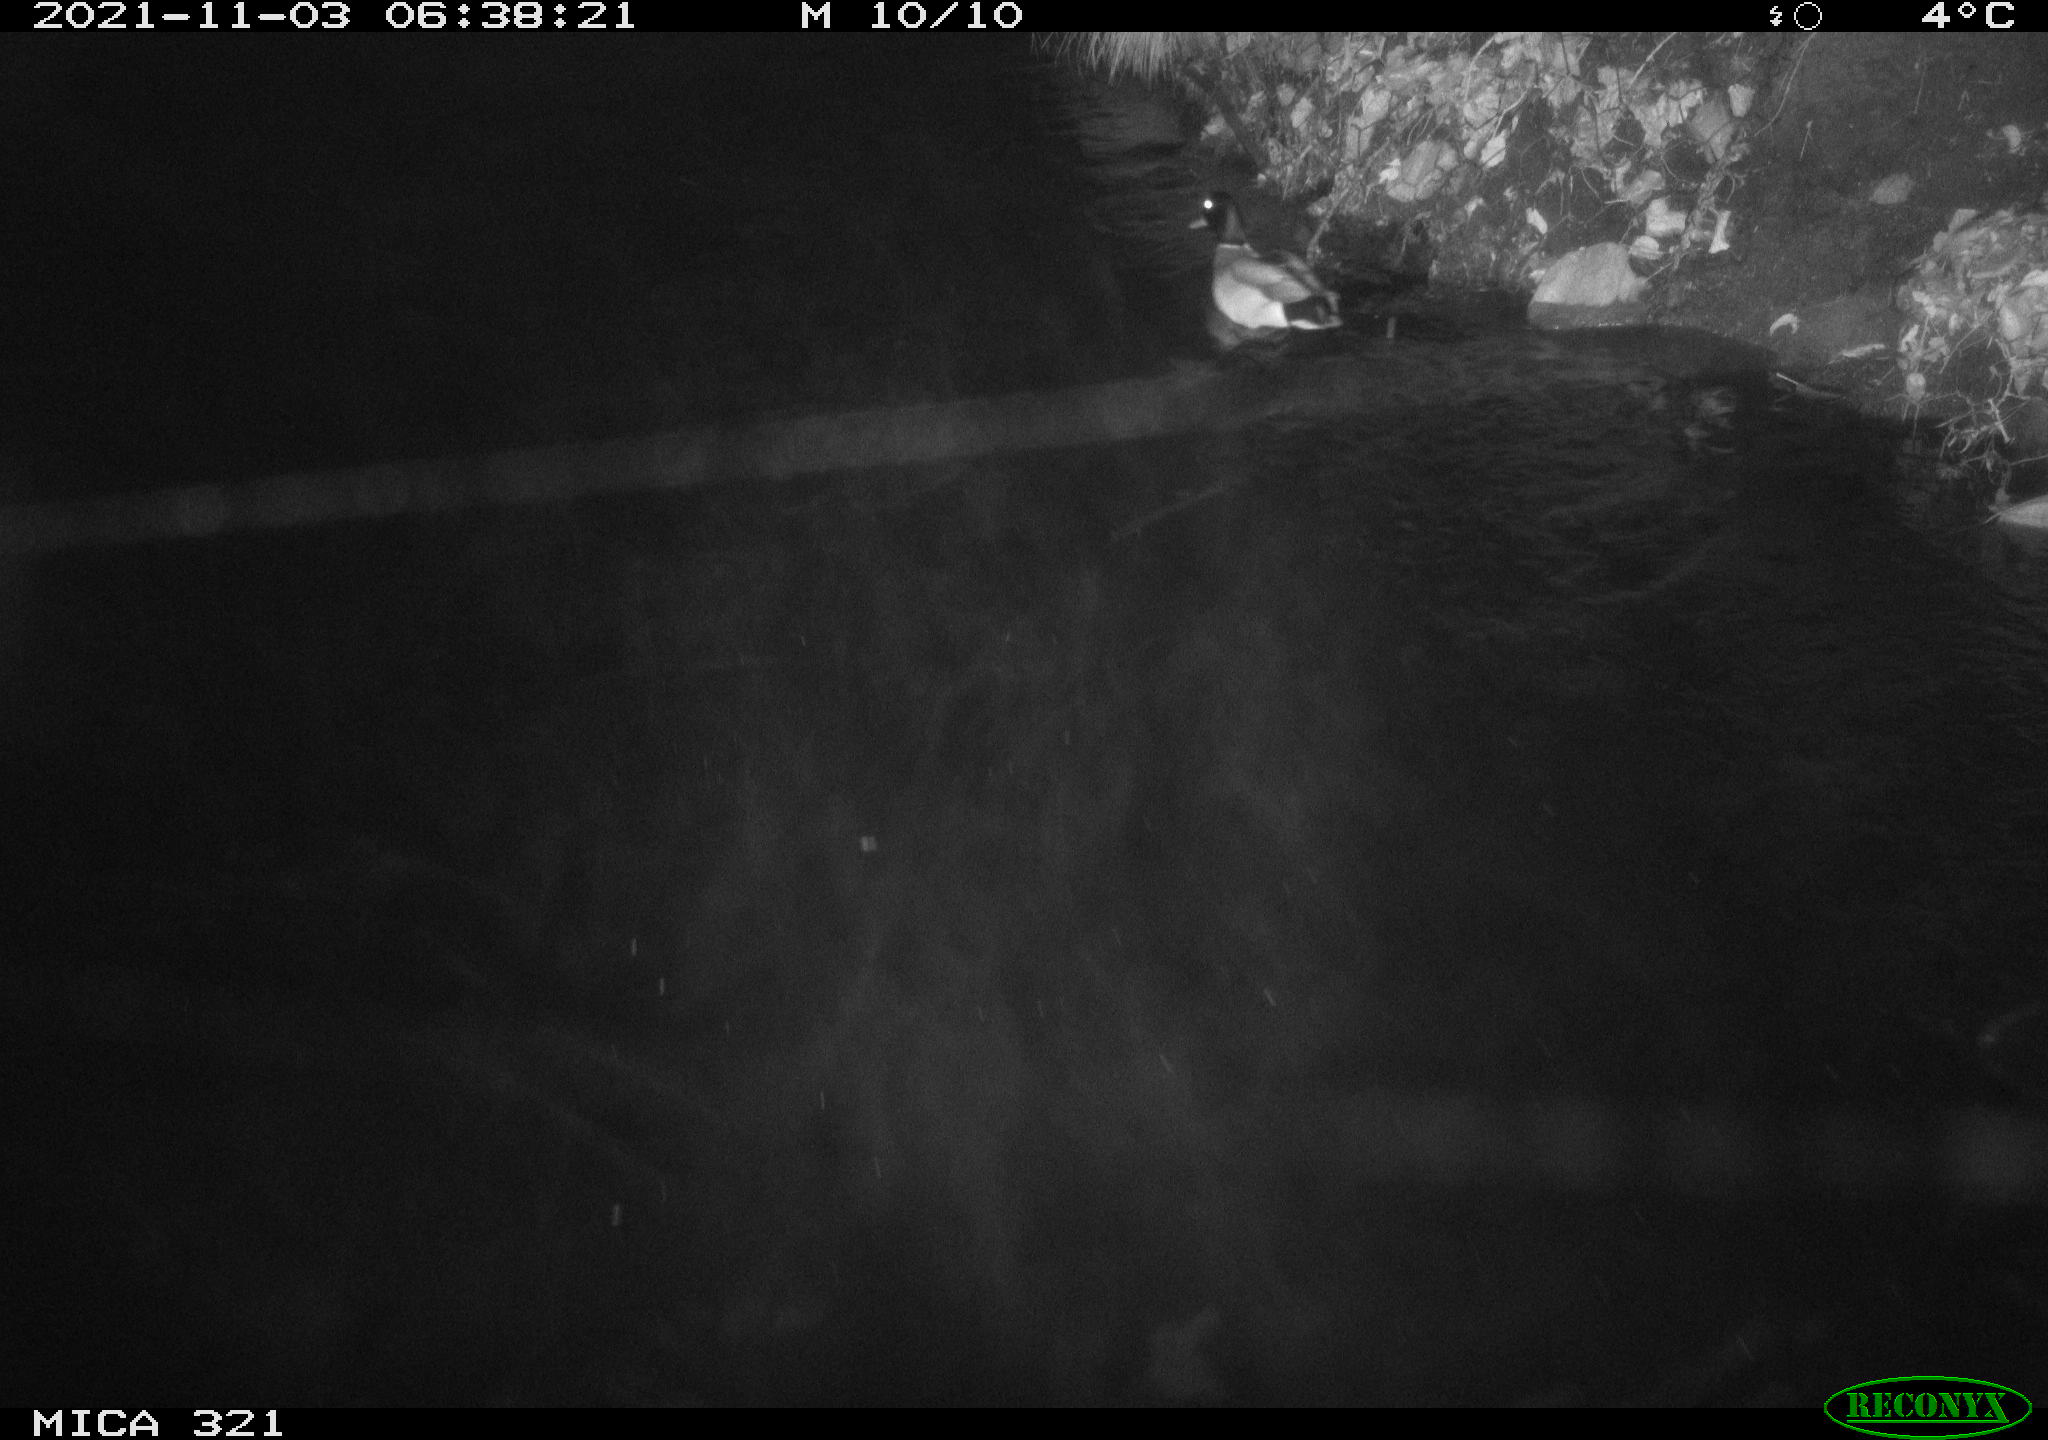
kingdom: Animalia
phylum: Chordata
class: Aves
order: Anseriformes
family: Anatidae
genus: Anas
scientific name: Anas platyrhynchos
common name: Mallard
